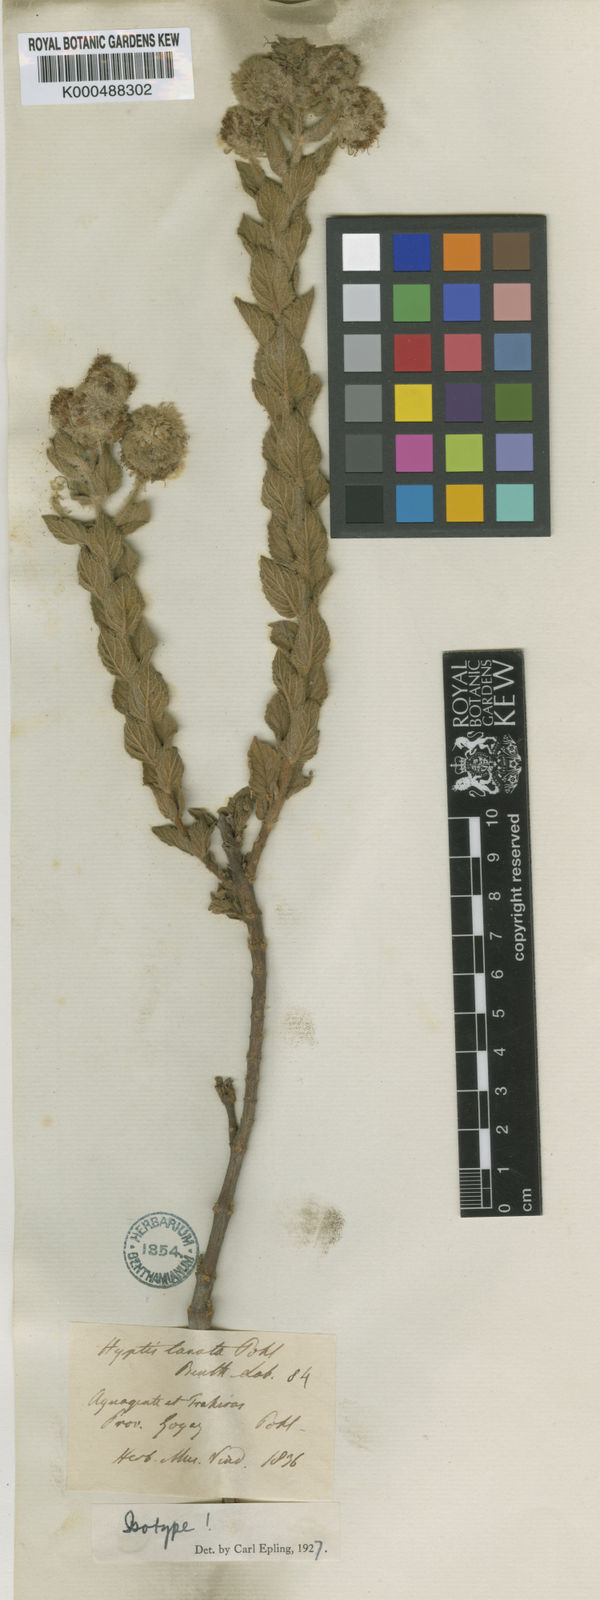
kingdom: Plantae
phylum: Tracheophyta
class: Magnoliopsida
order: Lamiales
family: Lamiaceae
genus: Cyanocephalus
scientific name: Cyanocephalus lanatus
